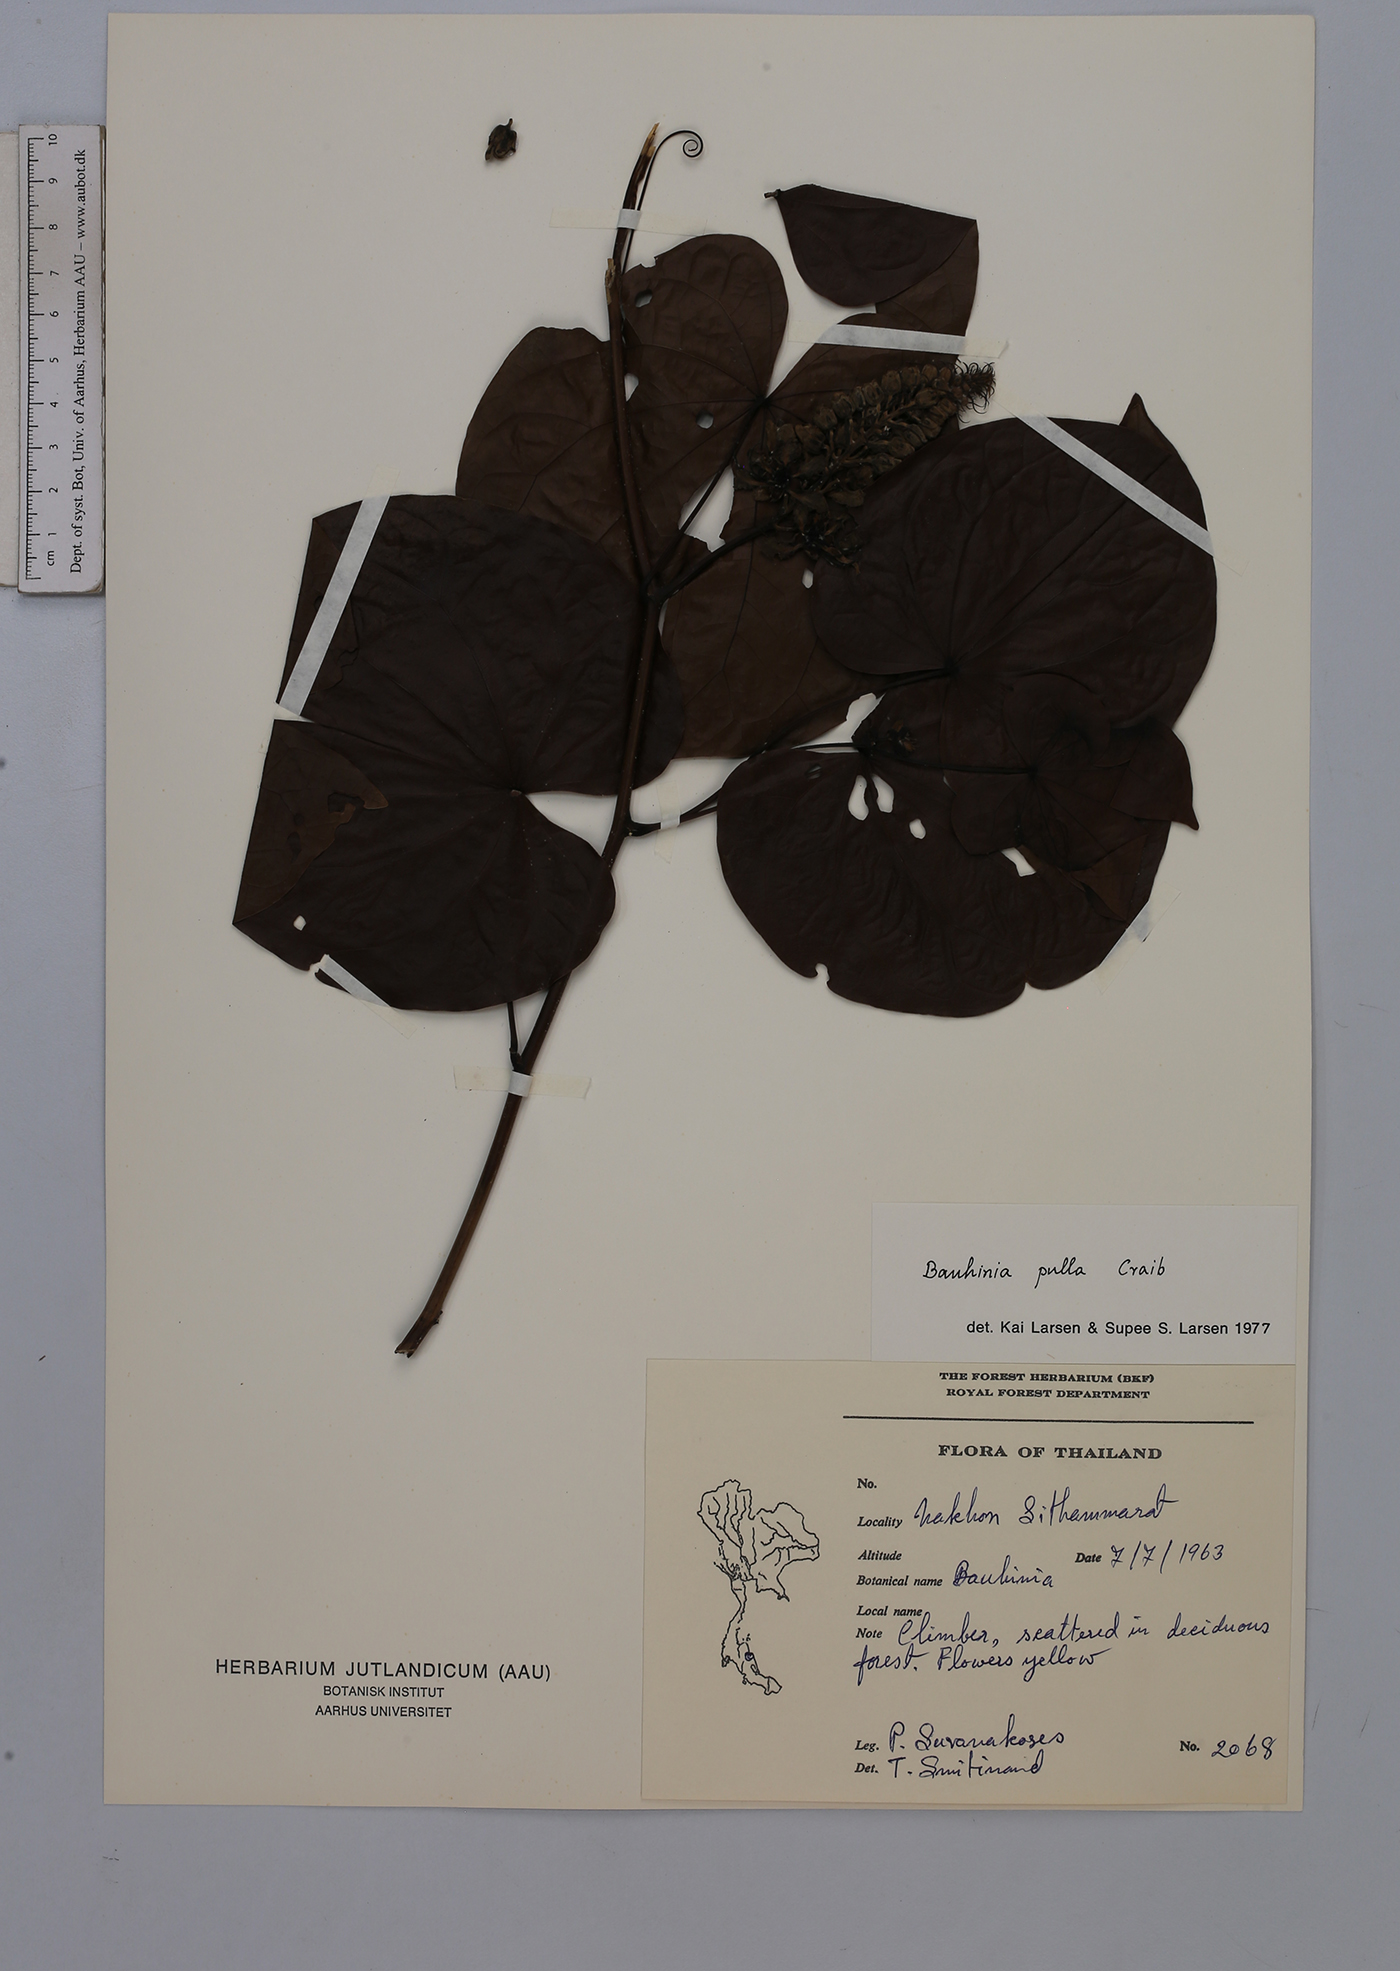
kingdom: Plantae
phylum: Tracheophyta
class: Magnoliopsida
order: Fabales
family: Fabaceae
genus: Phanera
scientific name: Phanera pulla
